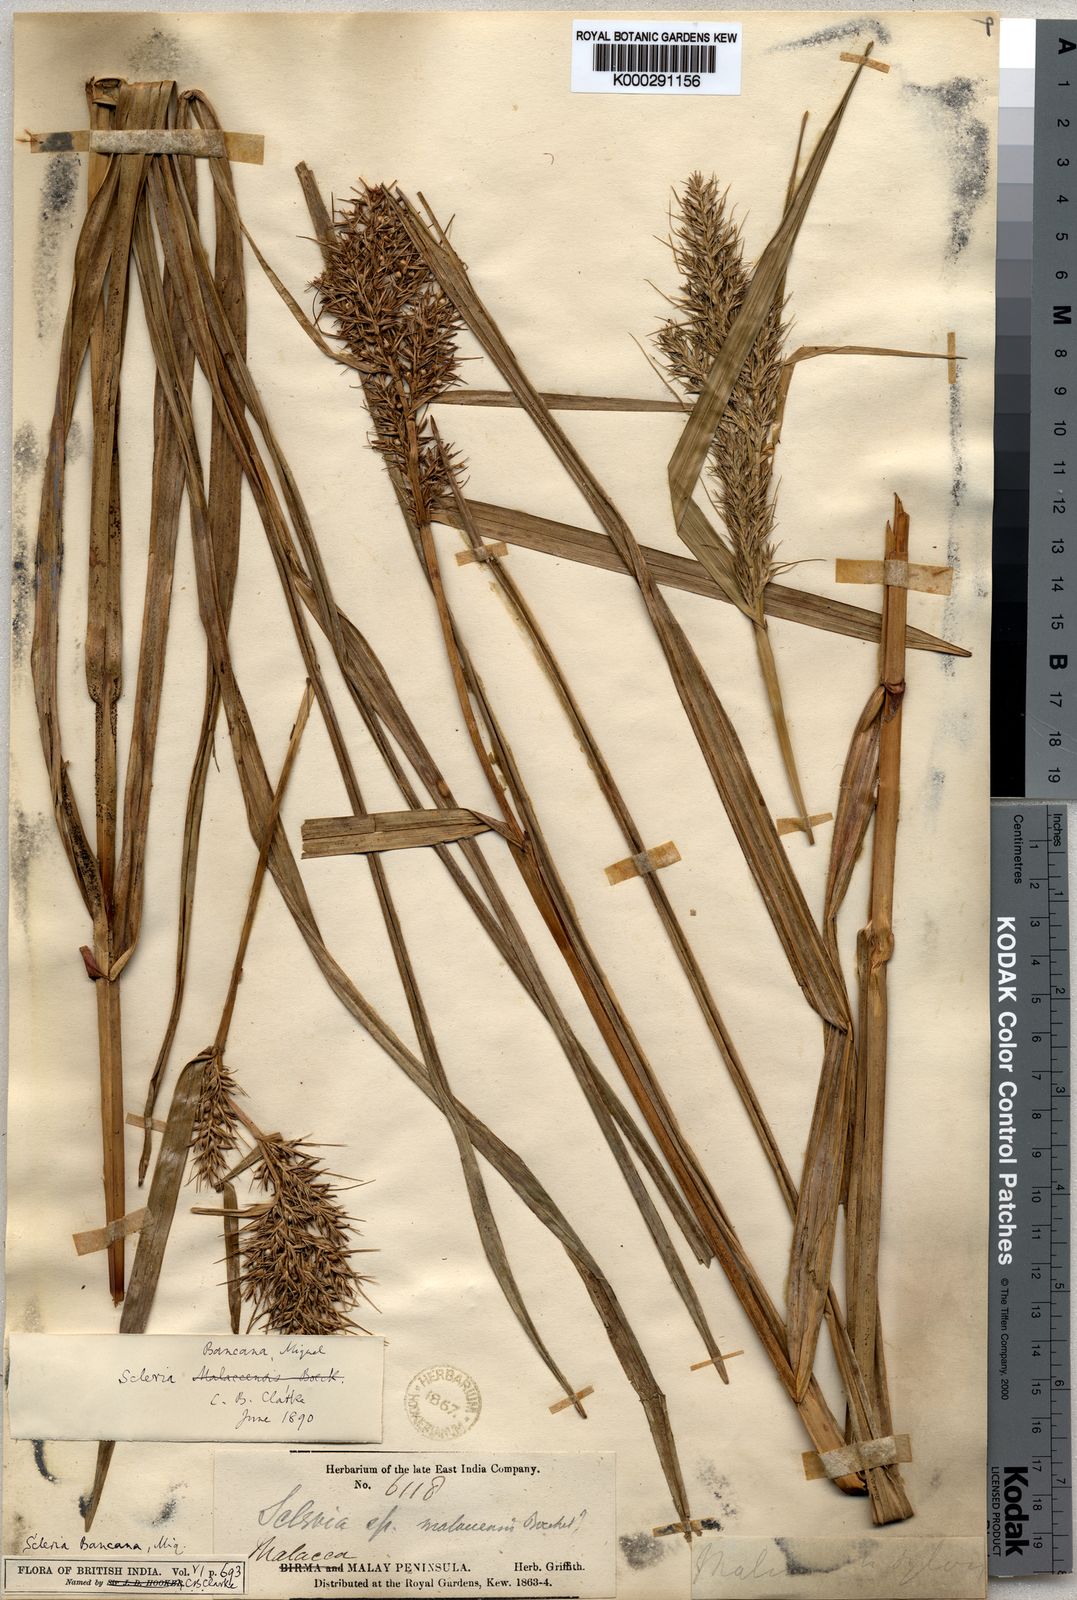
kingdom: Plantae
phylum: Tracheophyta
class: Liliopsida
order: Poales
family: Cyperaceae
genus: Scleria
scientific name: Scleria ciliaris
